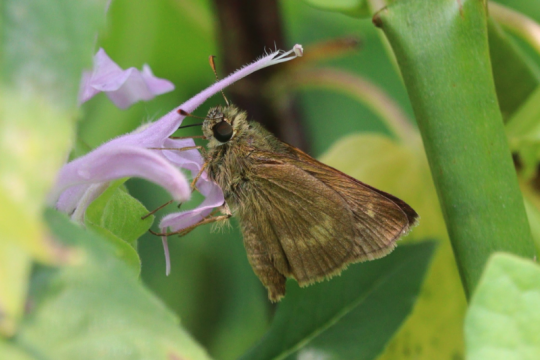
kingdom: Animalia
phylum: Arthropoda
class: Insecta
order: Lepidoptera
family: Hesperiidae
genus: Polites
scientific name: Polites egeremet
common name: Northern Broken-Dash
